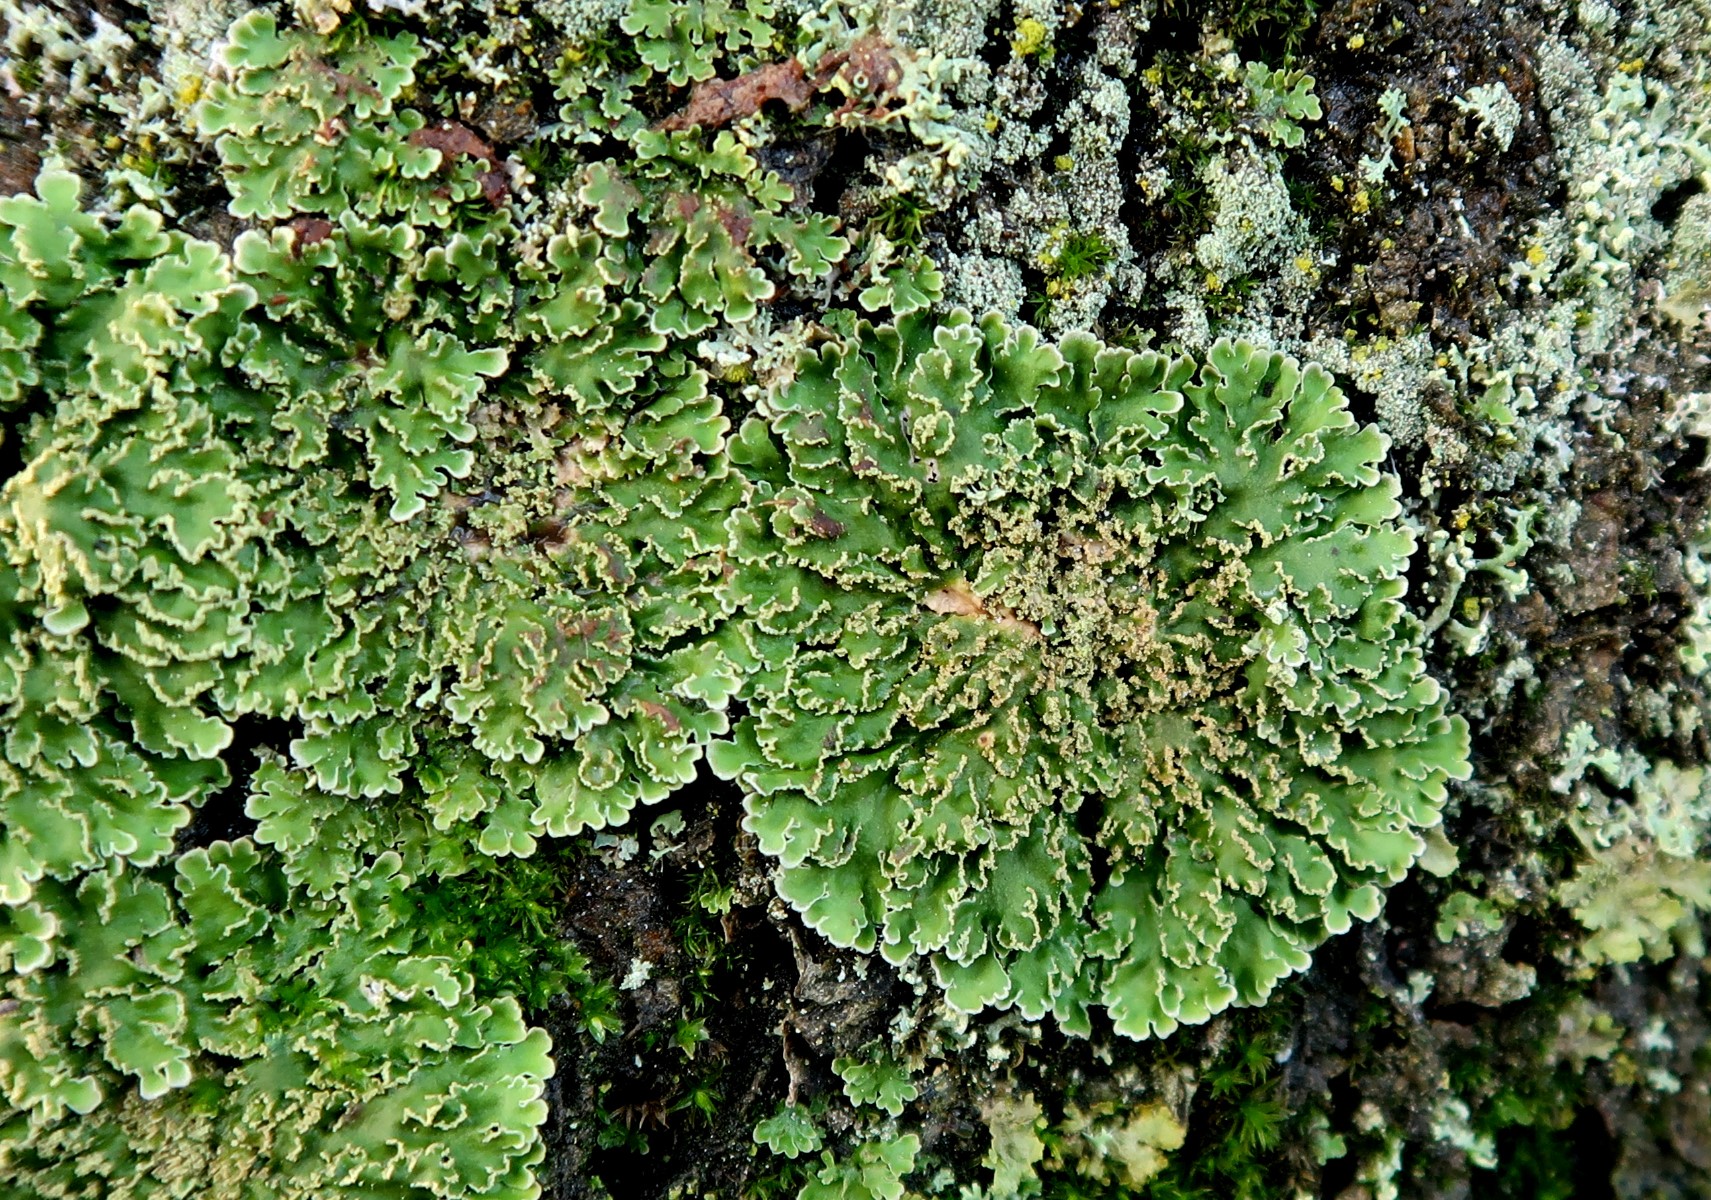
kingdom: Fungi
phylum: Ascomycota
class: Lecanoromycetes
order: Caliciales
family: Physciaceae
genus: Physconia
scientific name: Physconia
